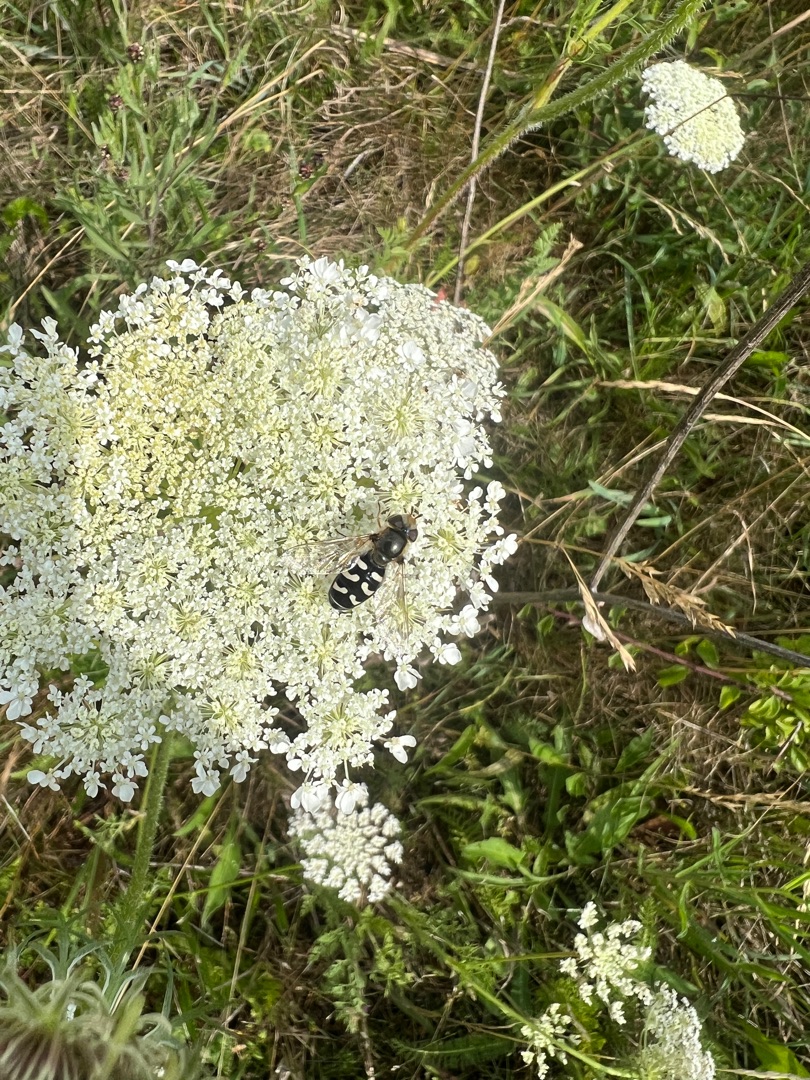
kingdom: Animalia
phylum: Arthropoda
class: Insecta
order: Diptera
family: Syrphidae
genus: Scaeva
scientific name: Scaeva pyrastri
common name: Hvidplettet agersvirreflue
